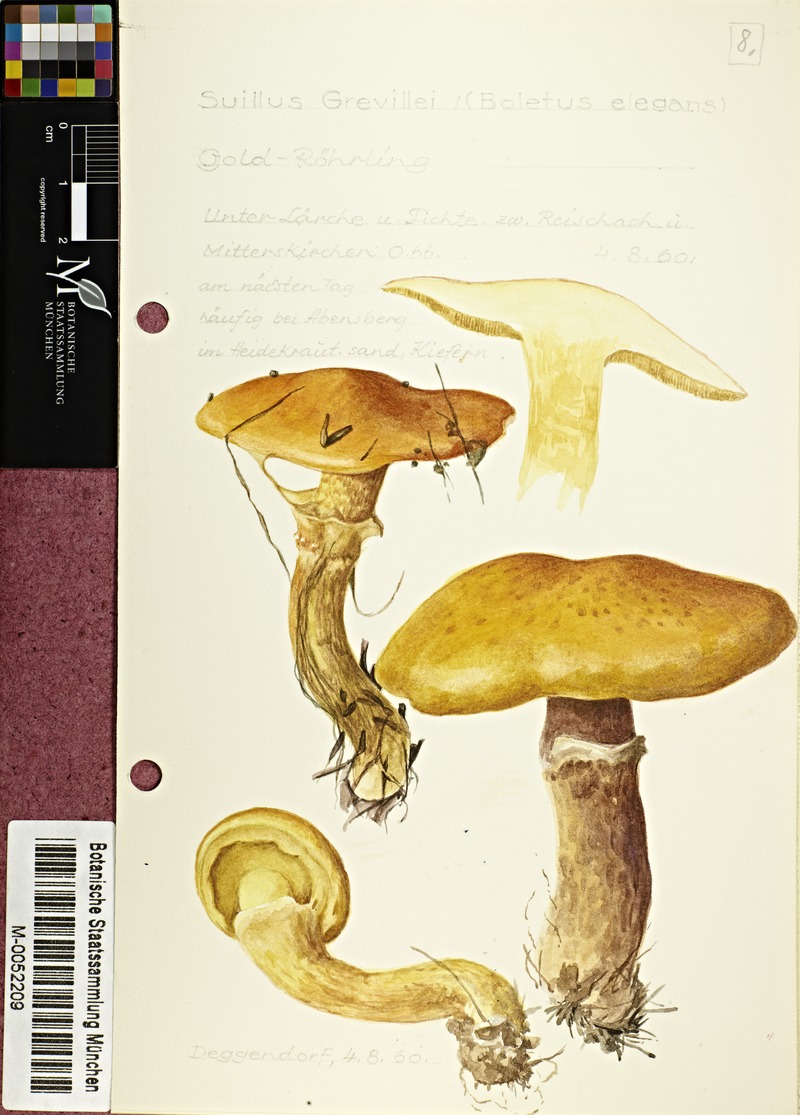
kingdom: Fungi
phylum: Basidiomycota
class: Agaricomycetes
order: Boletales
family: Suillaceae
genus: Suillus
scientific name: Suillus grevillei
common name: Larch bolete
